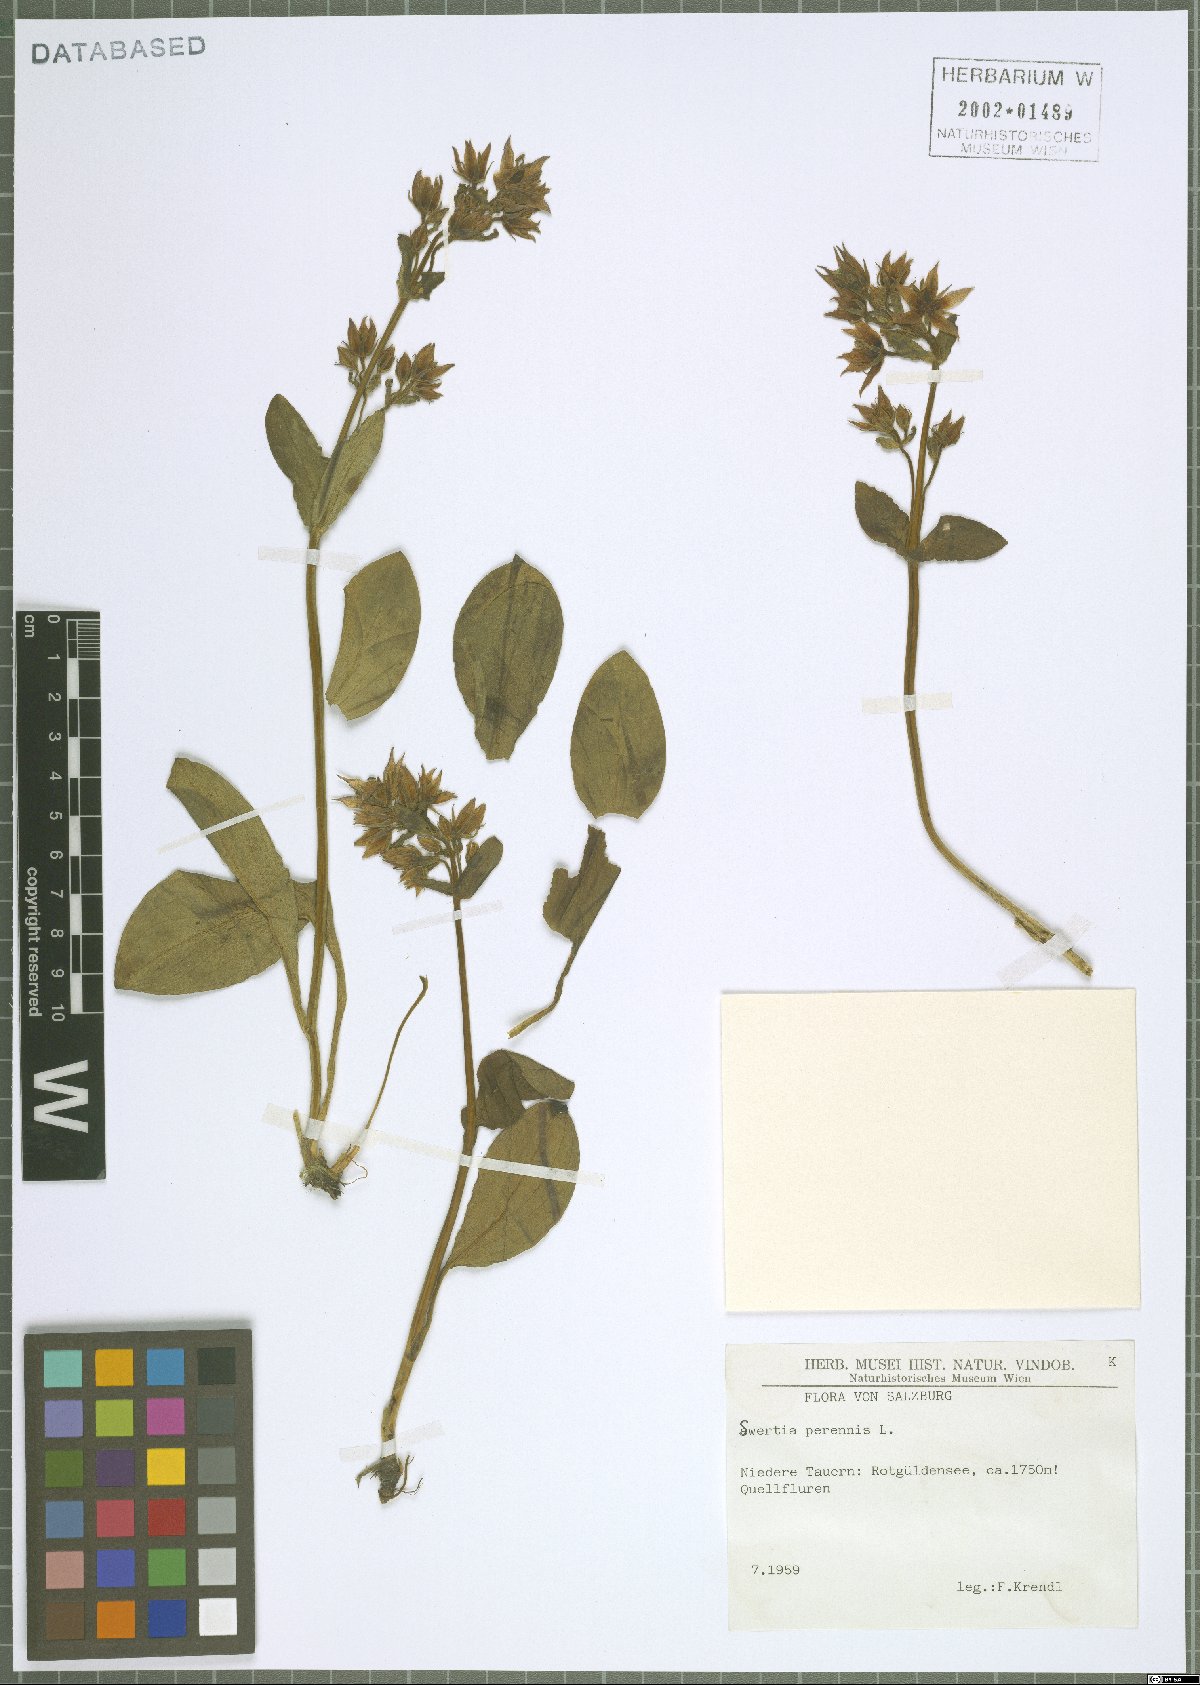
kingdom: Plantae
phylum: Tracheophyta
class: Magnoliopsida
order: Gentianales
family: Gentianaceae
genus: Swertia
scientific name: Swertia perennis
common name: Alpine bog swertia
